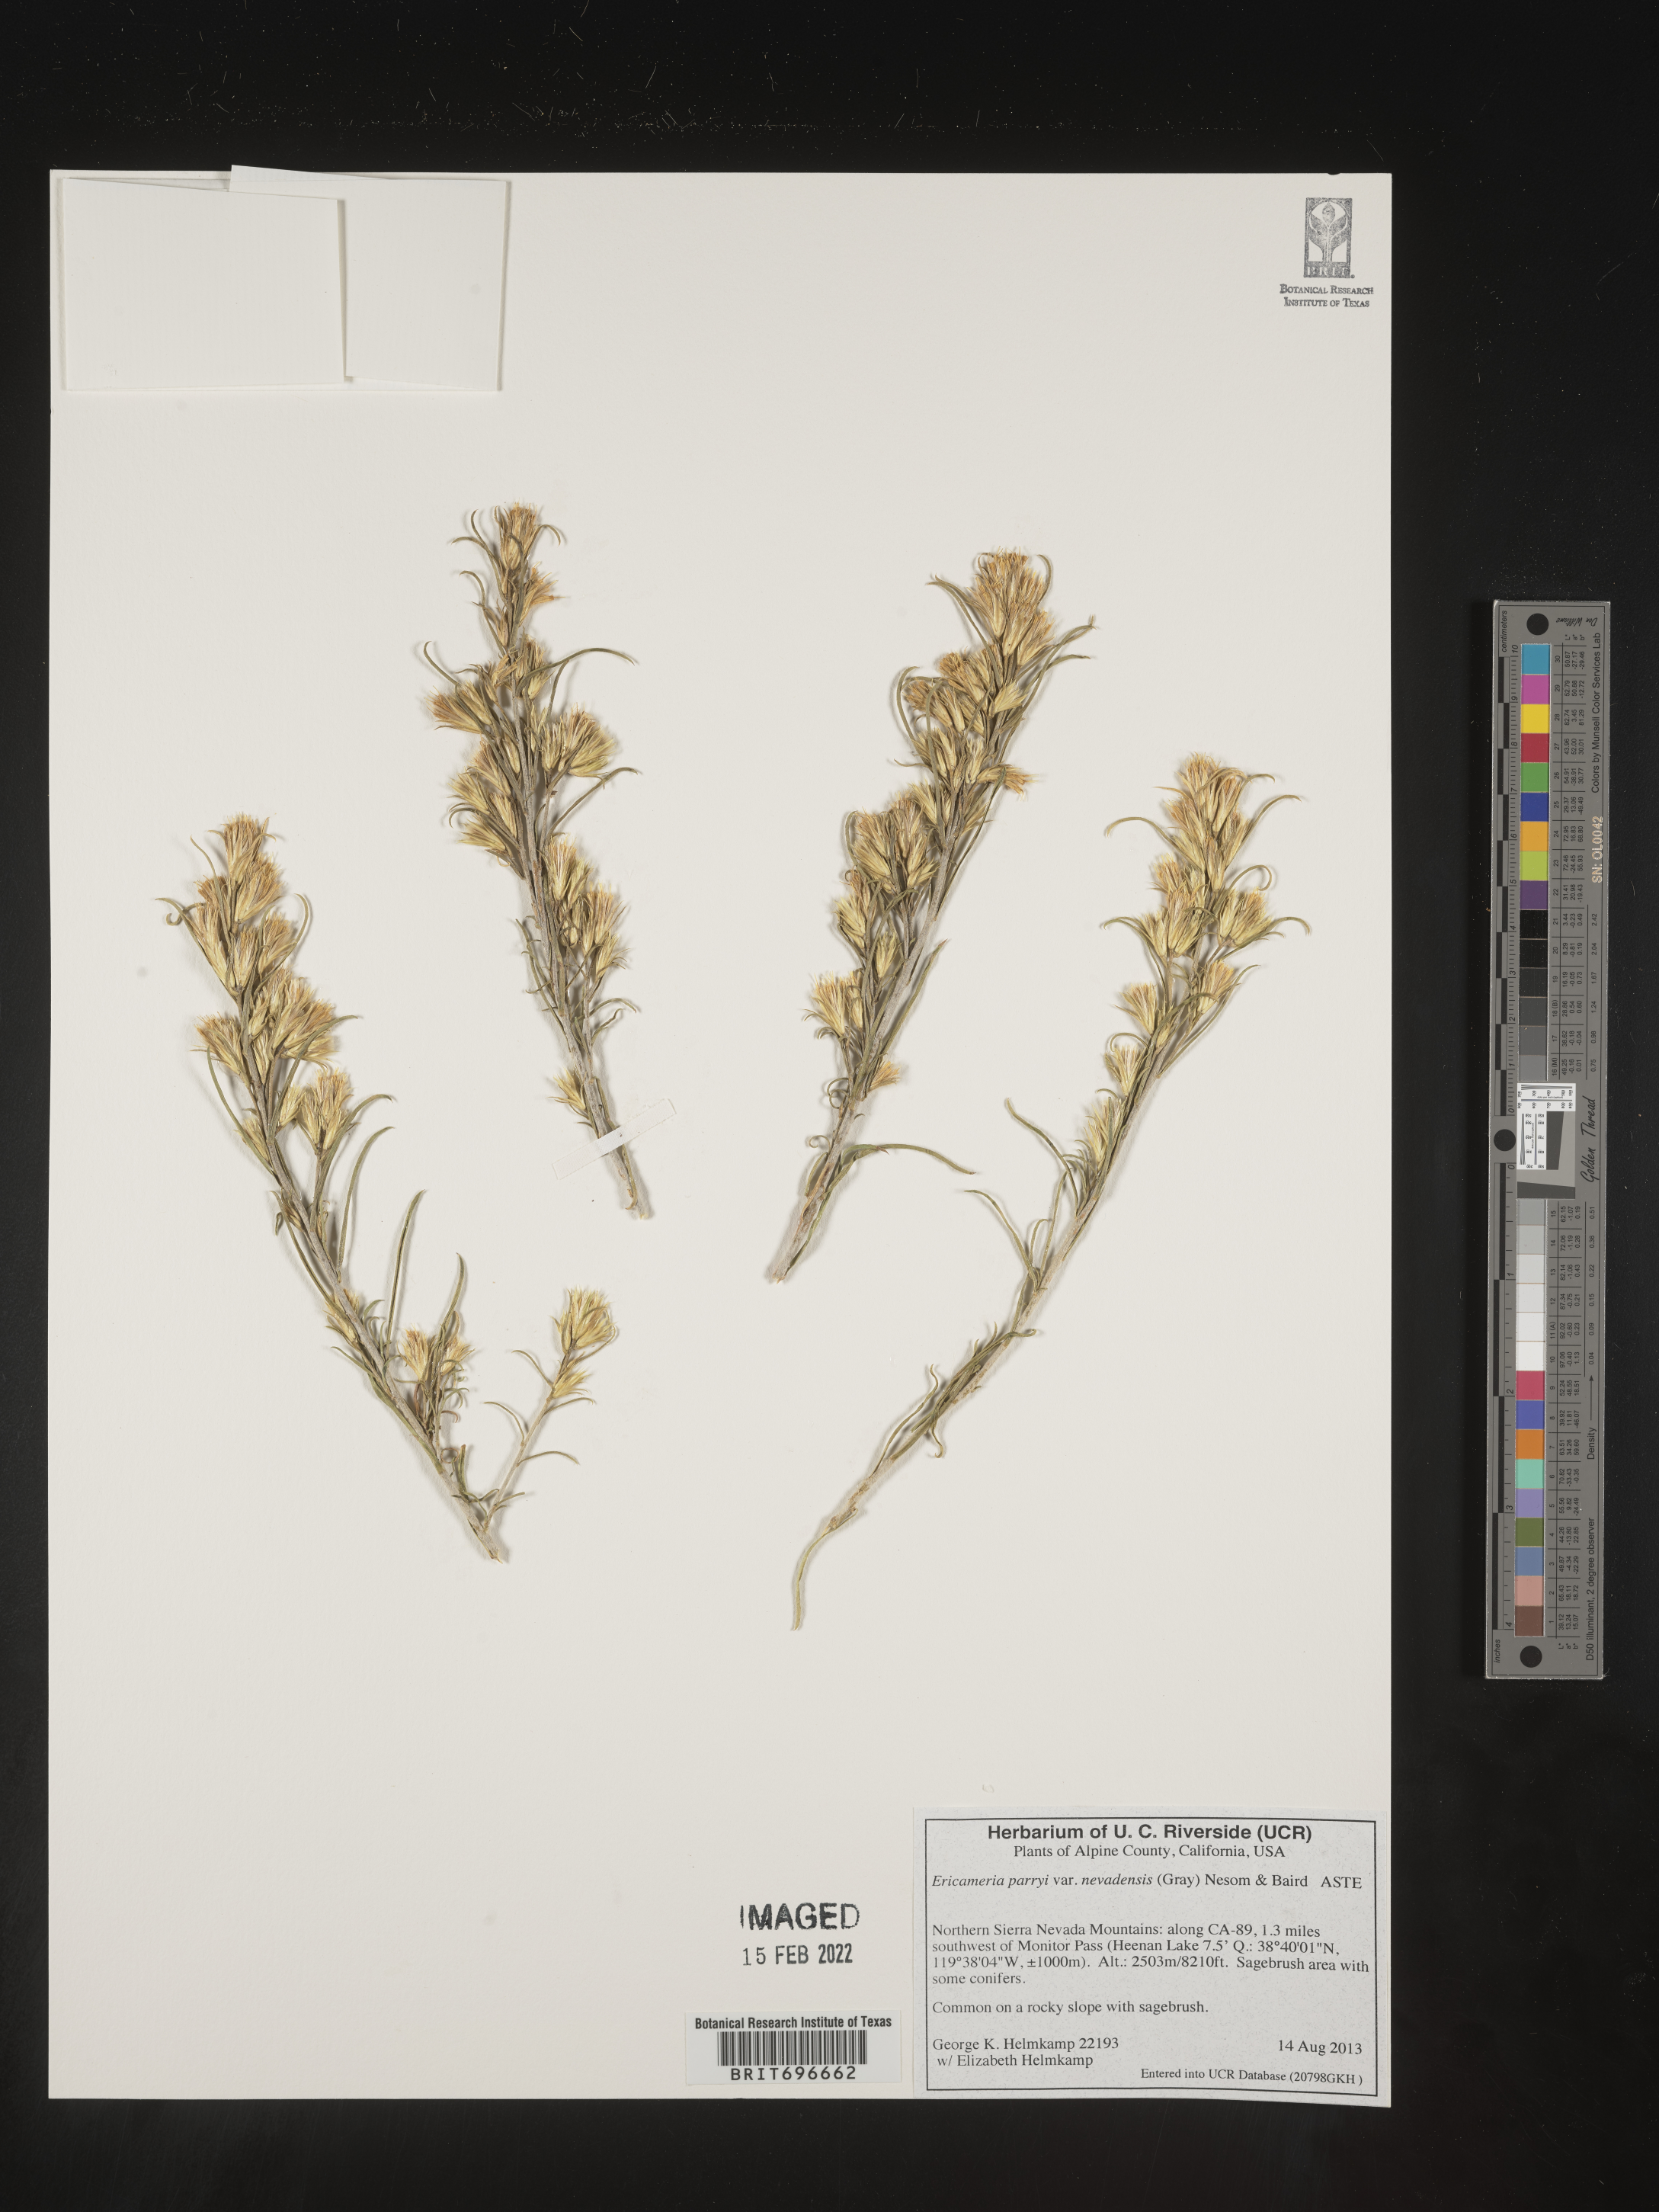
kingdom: Plantae
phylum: Tracheophyta
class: Magnoliopsida
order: Asterales
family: Asteraceae
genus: Ericameria
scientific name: Ericameria parryi
